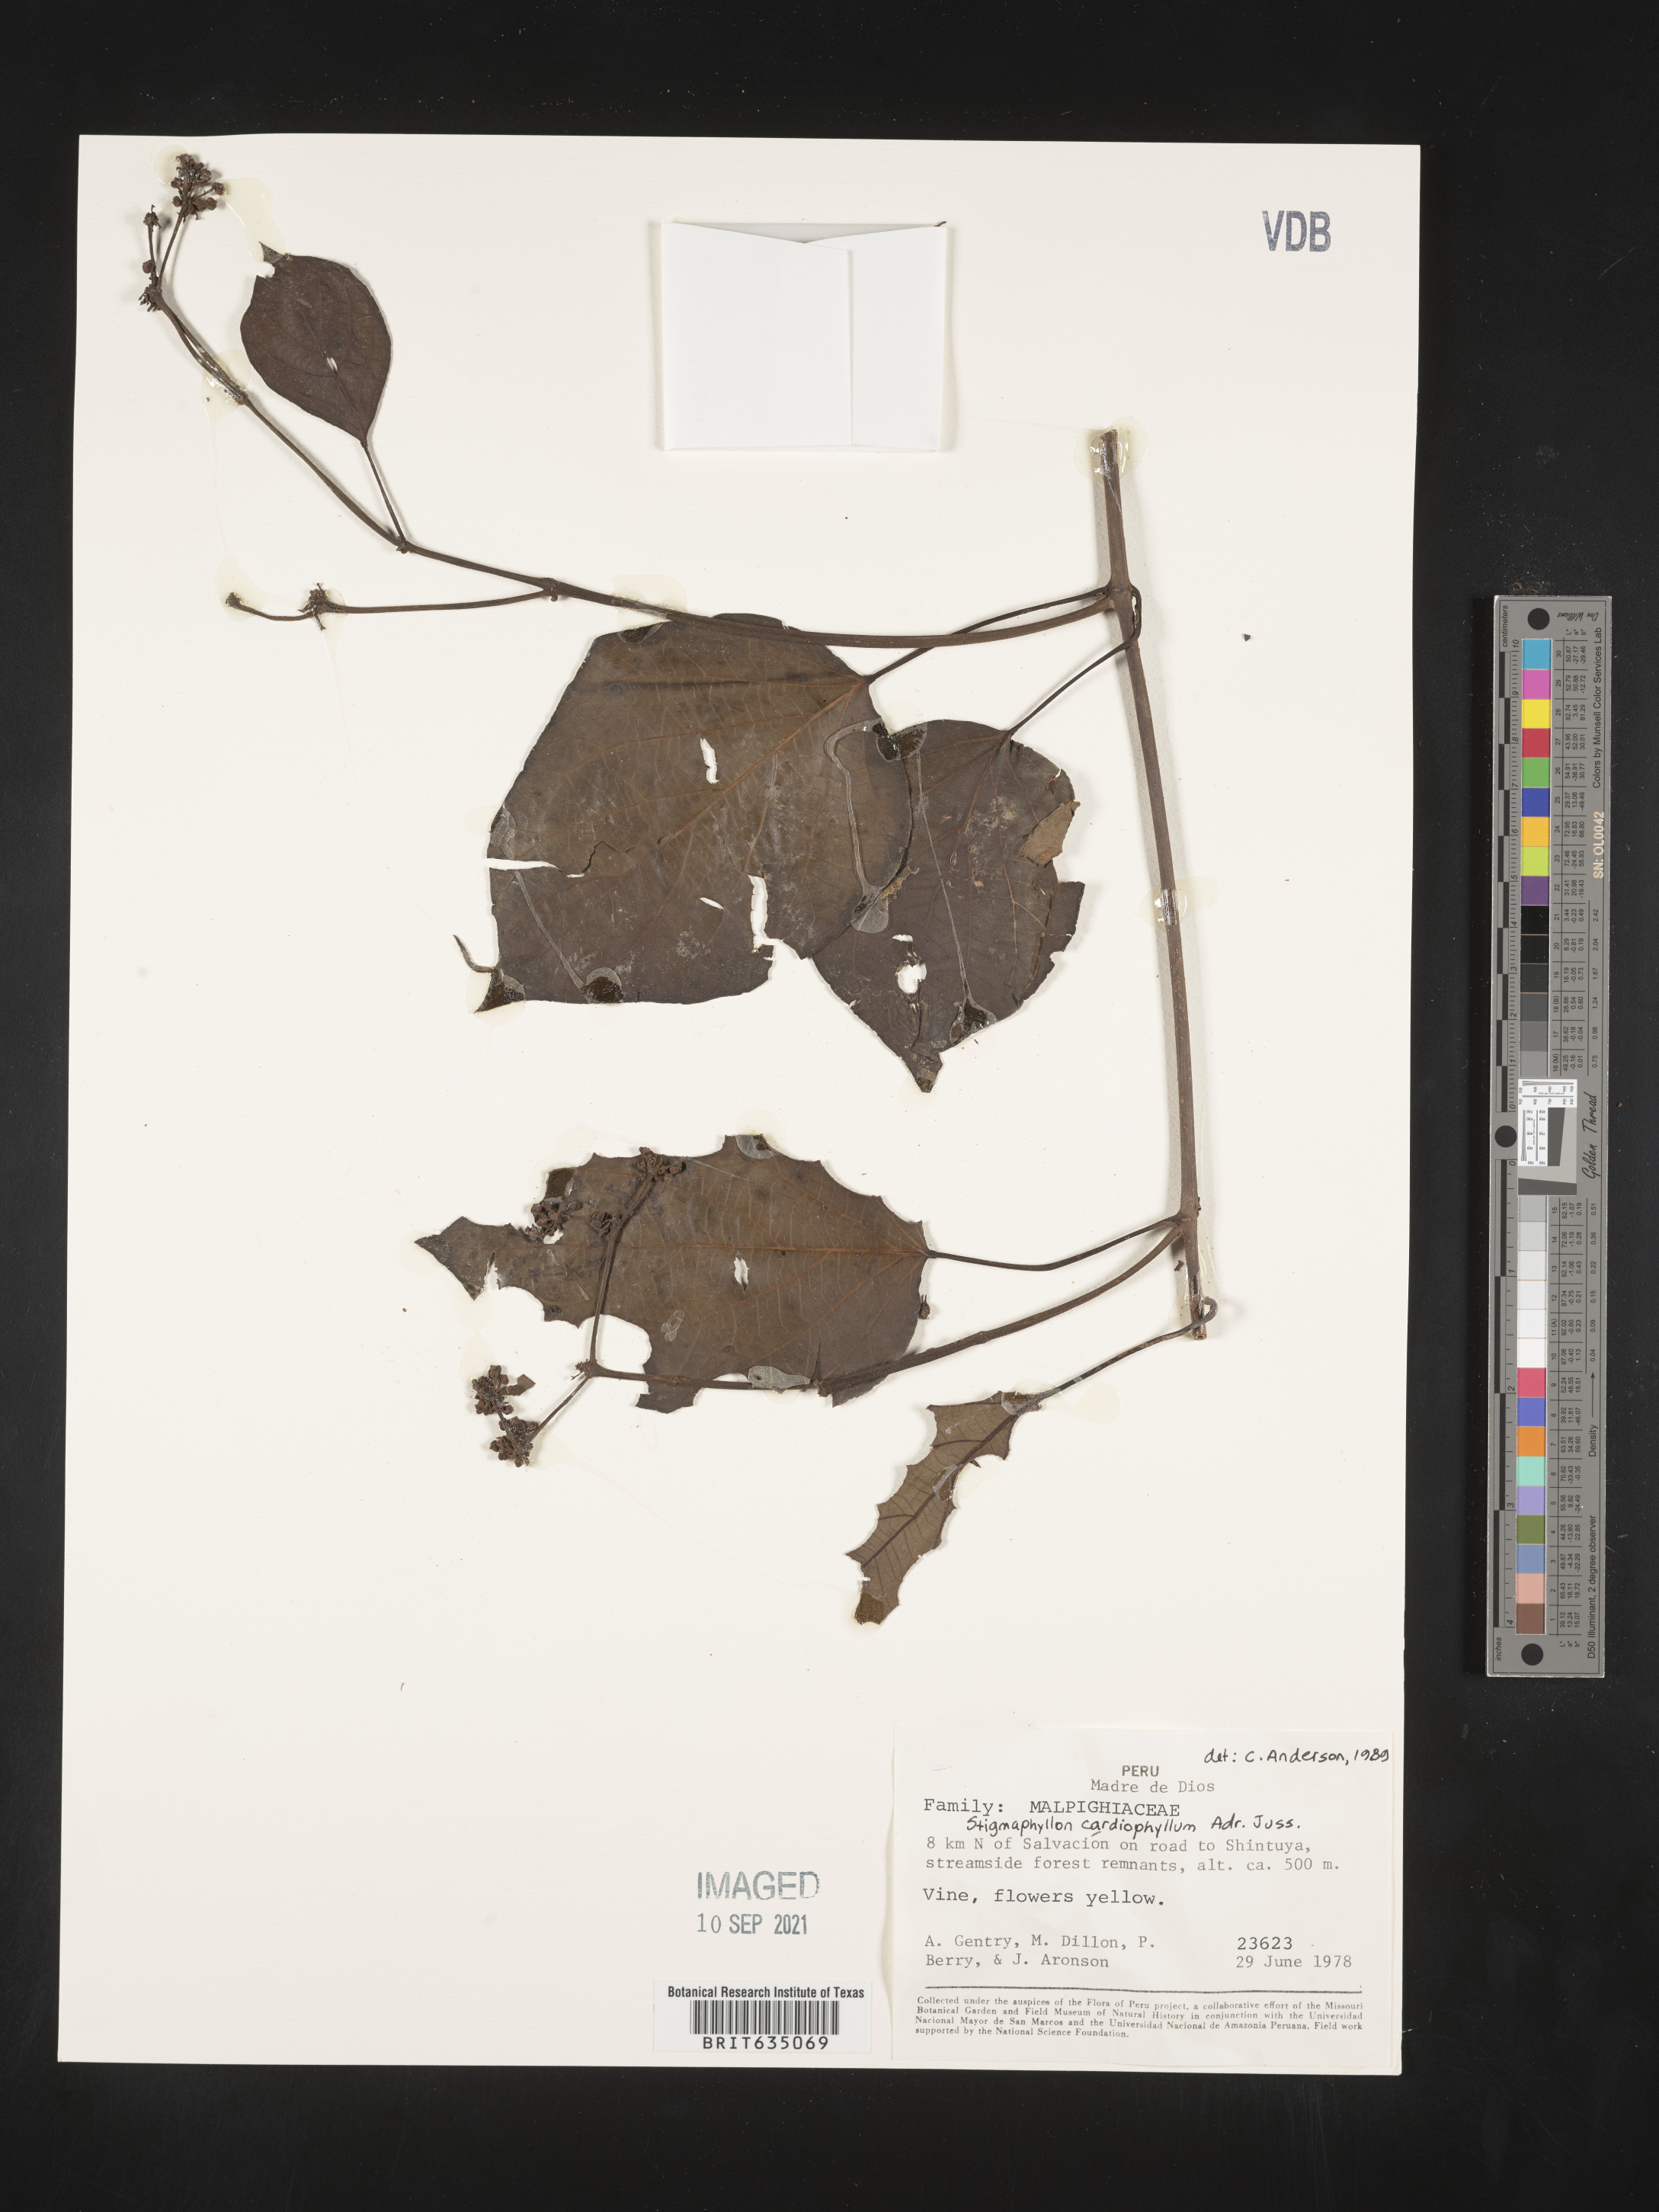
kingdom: Plantae
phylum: Tracheophyta
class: Magnoliopsida
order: Malpighiales
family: Malpighiaceae
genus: Stigmaphyllon
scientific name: Stigmaphyllon
